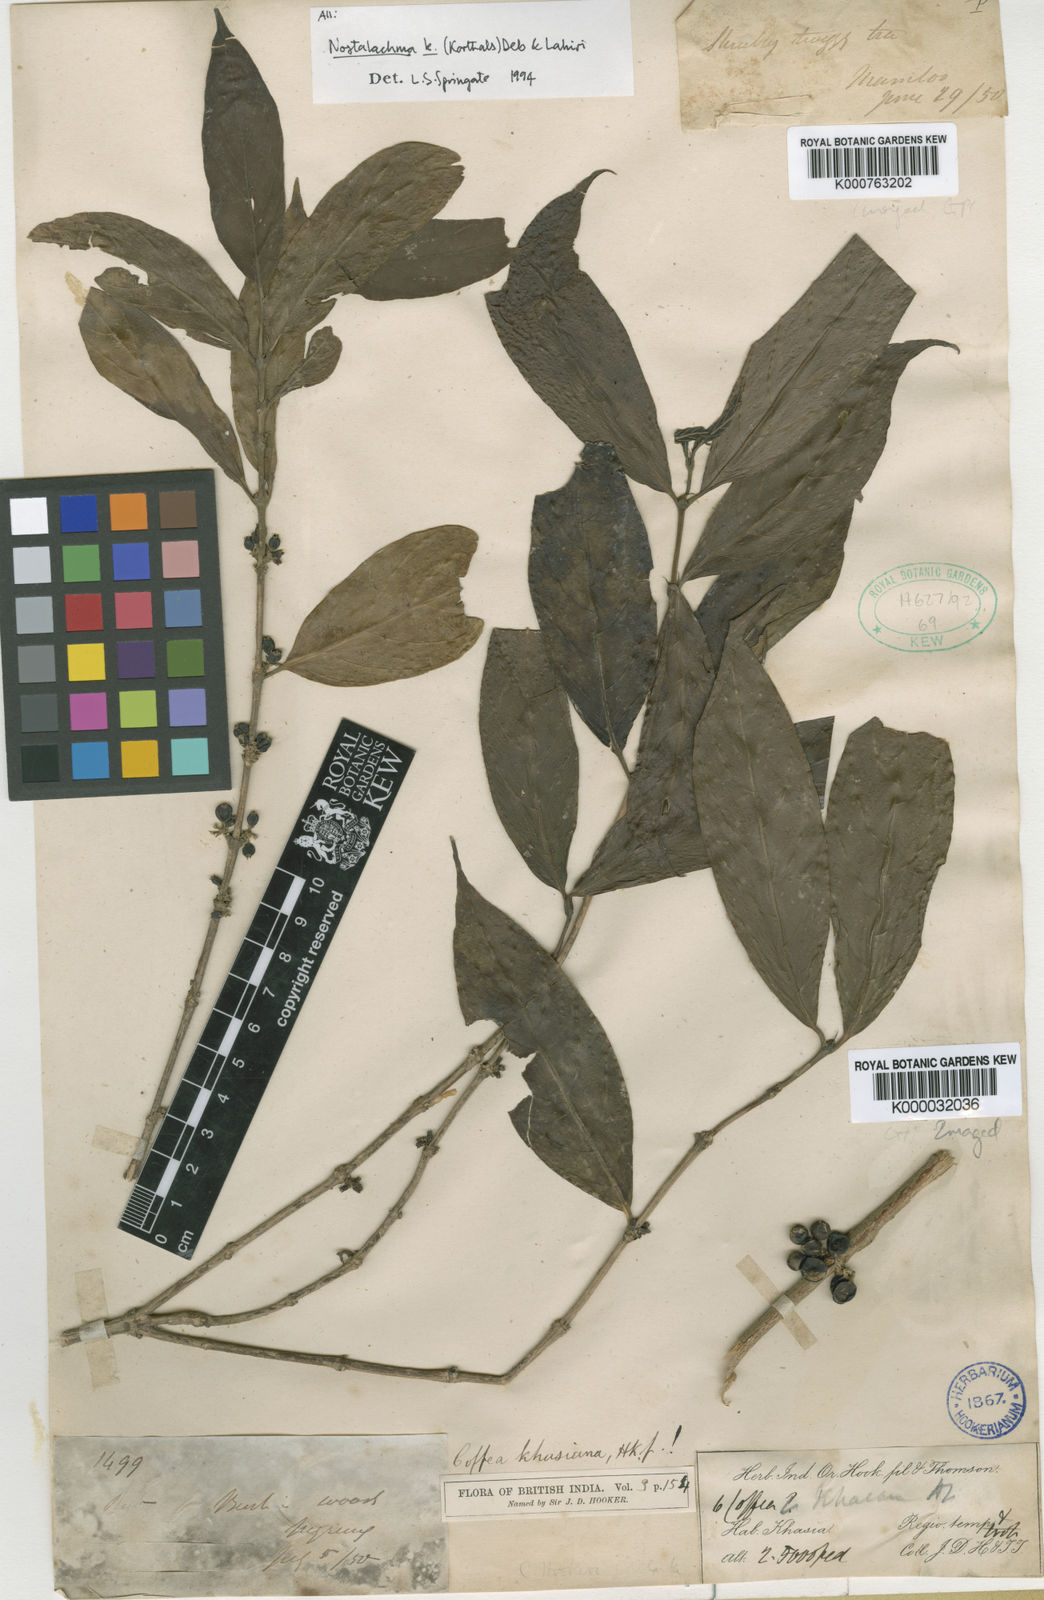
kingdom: Plantae
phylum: Tracheophyta
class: Magnoliopsida
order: Gentianales
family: Rubiaceae
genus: Nostolachma
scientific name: Nostolachma triflorum
